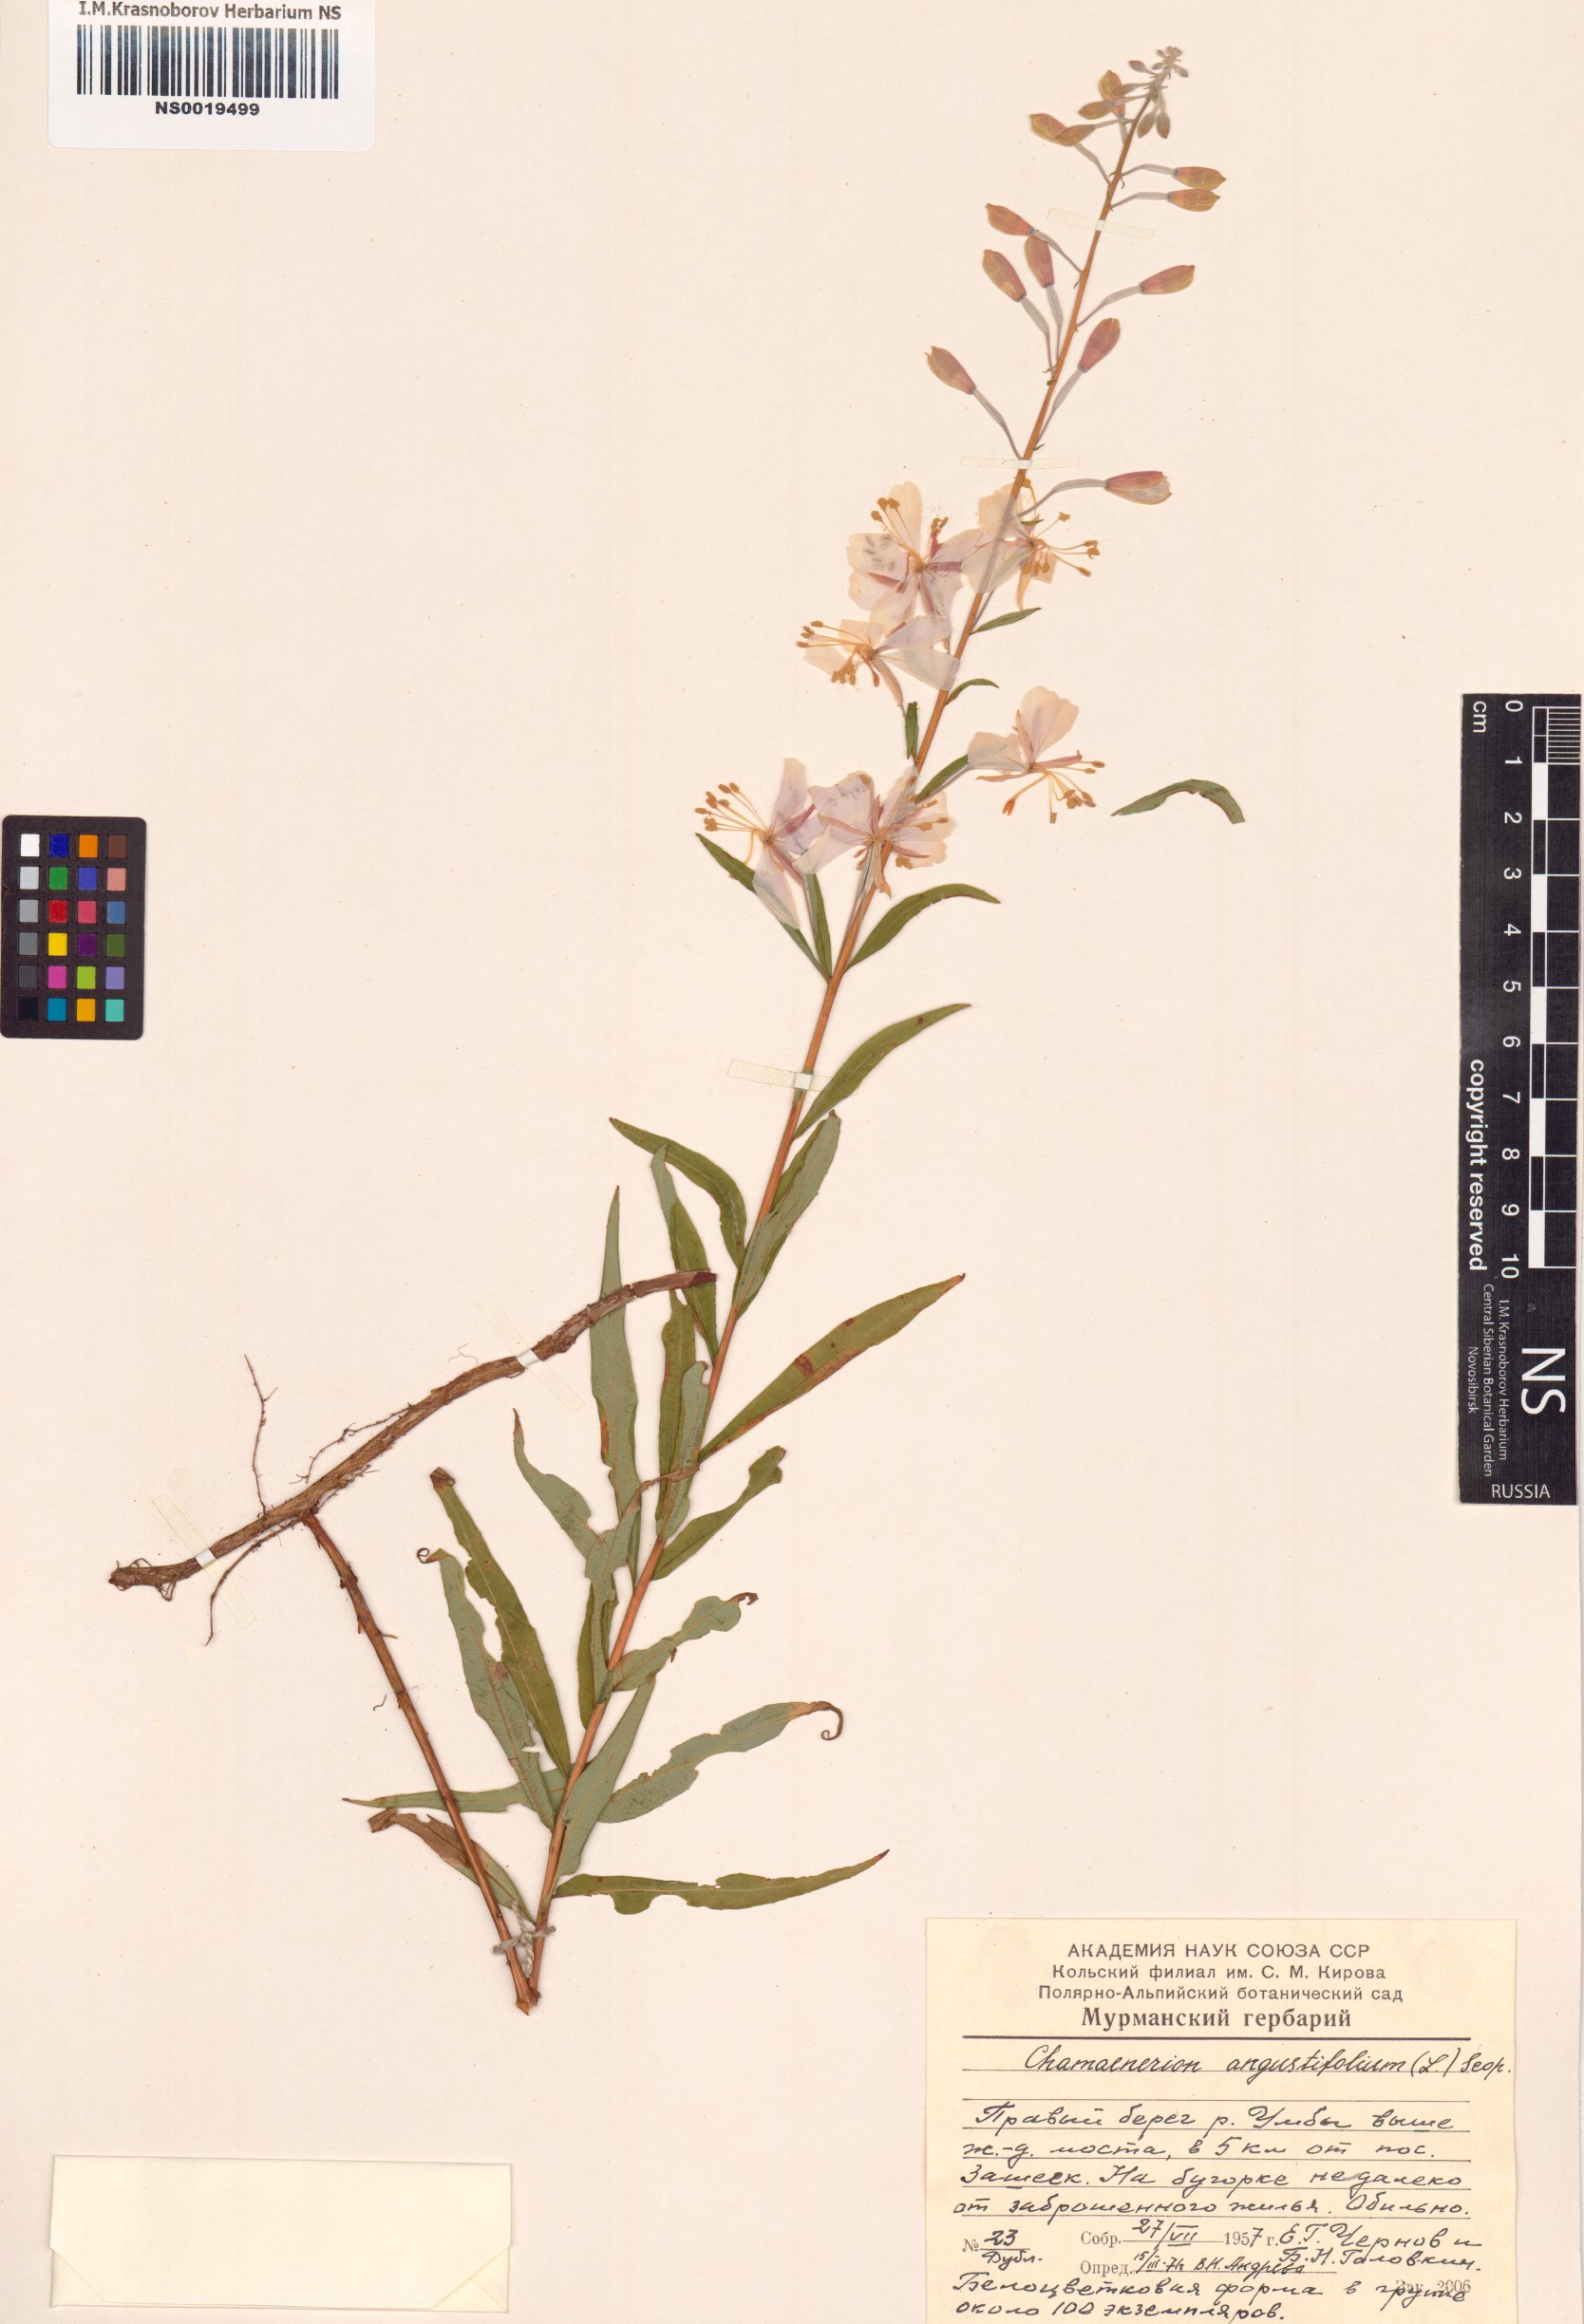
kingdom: Plantae
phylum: Tracheophyta
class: Magnoliopsida
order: Myrtales
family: Onagraceae
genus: Chamaenerion
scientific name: Chamaenerion angustifolium
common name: Fireweed
